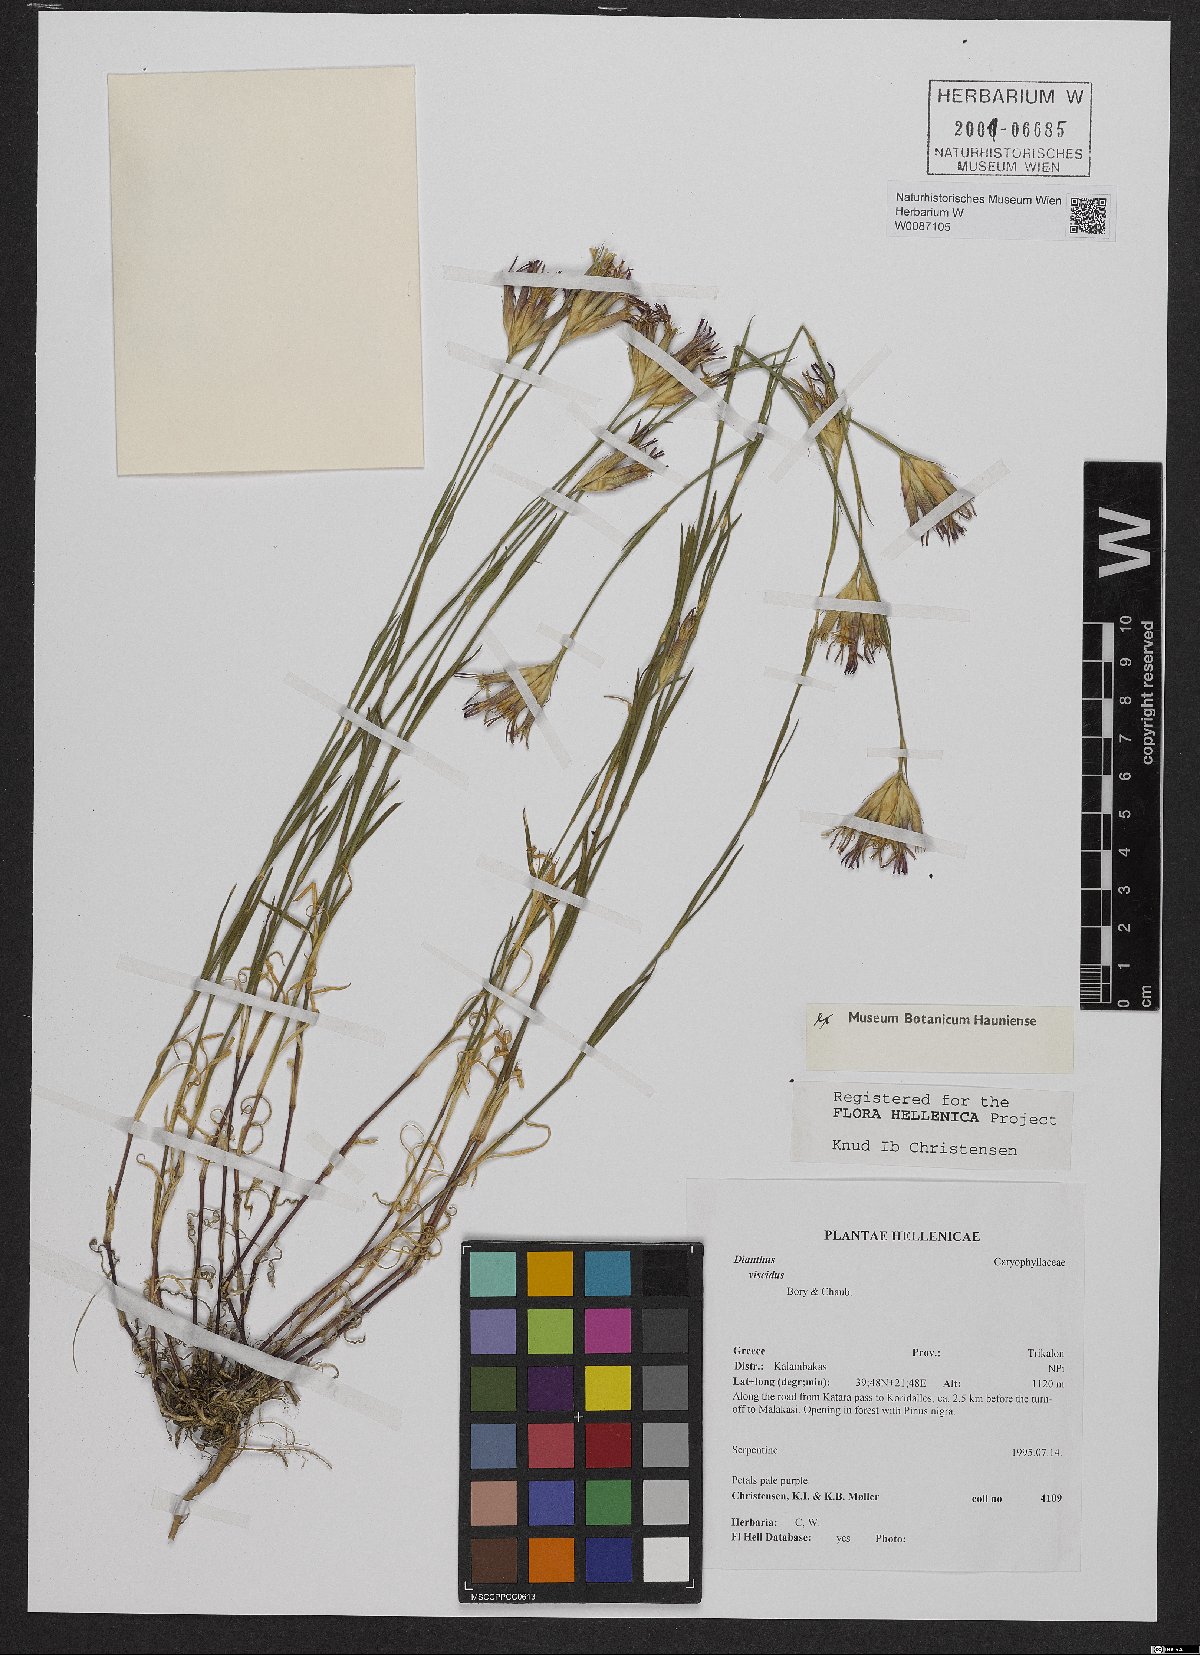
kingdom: Plantae
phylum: Tracheophyta
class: Magnoliopsida
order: Caryophyllales
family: Caryophyllaceae
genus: Dianthus
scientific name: Dianthus viscidus
